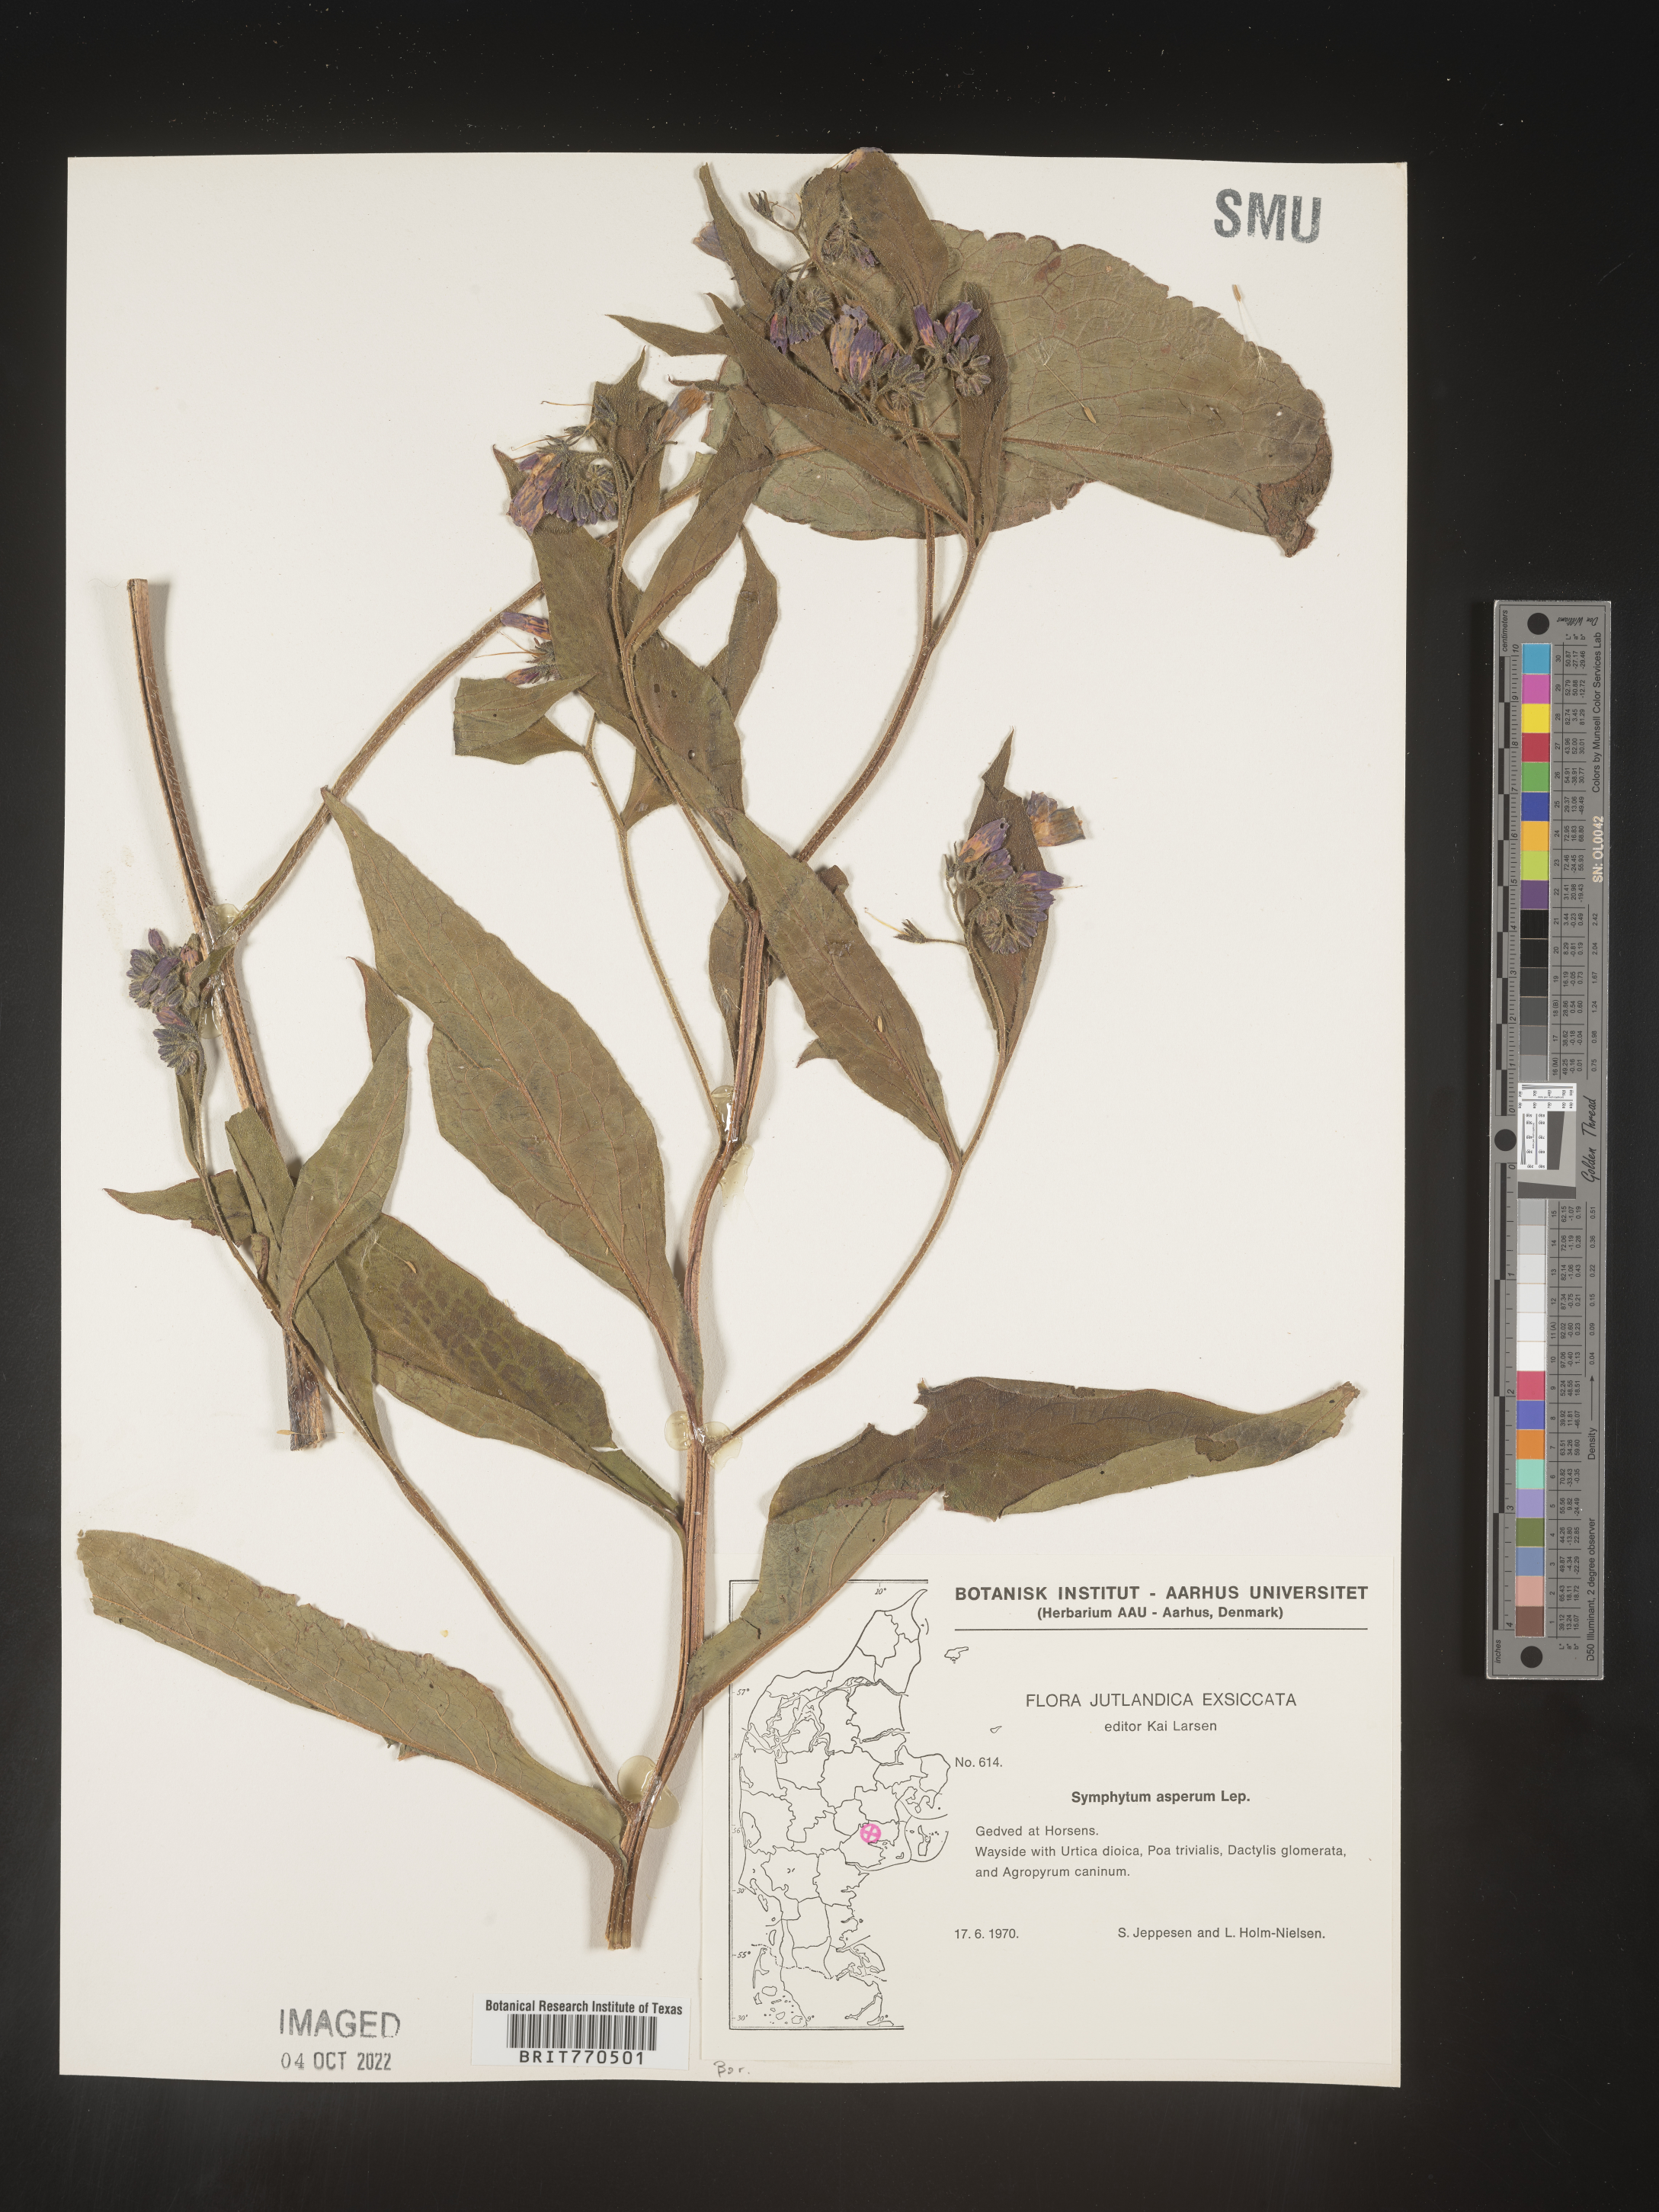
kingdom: Plantae
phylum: Tracheophyta
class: Magnoliopsida
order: Boraginales
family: Boraginaceae
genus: Symphytum
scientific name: Symphytum
